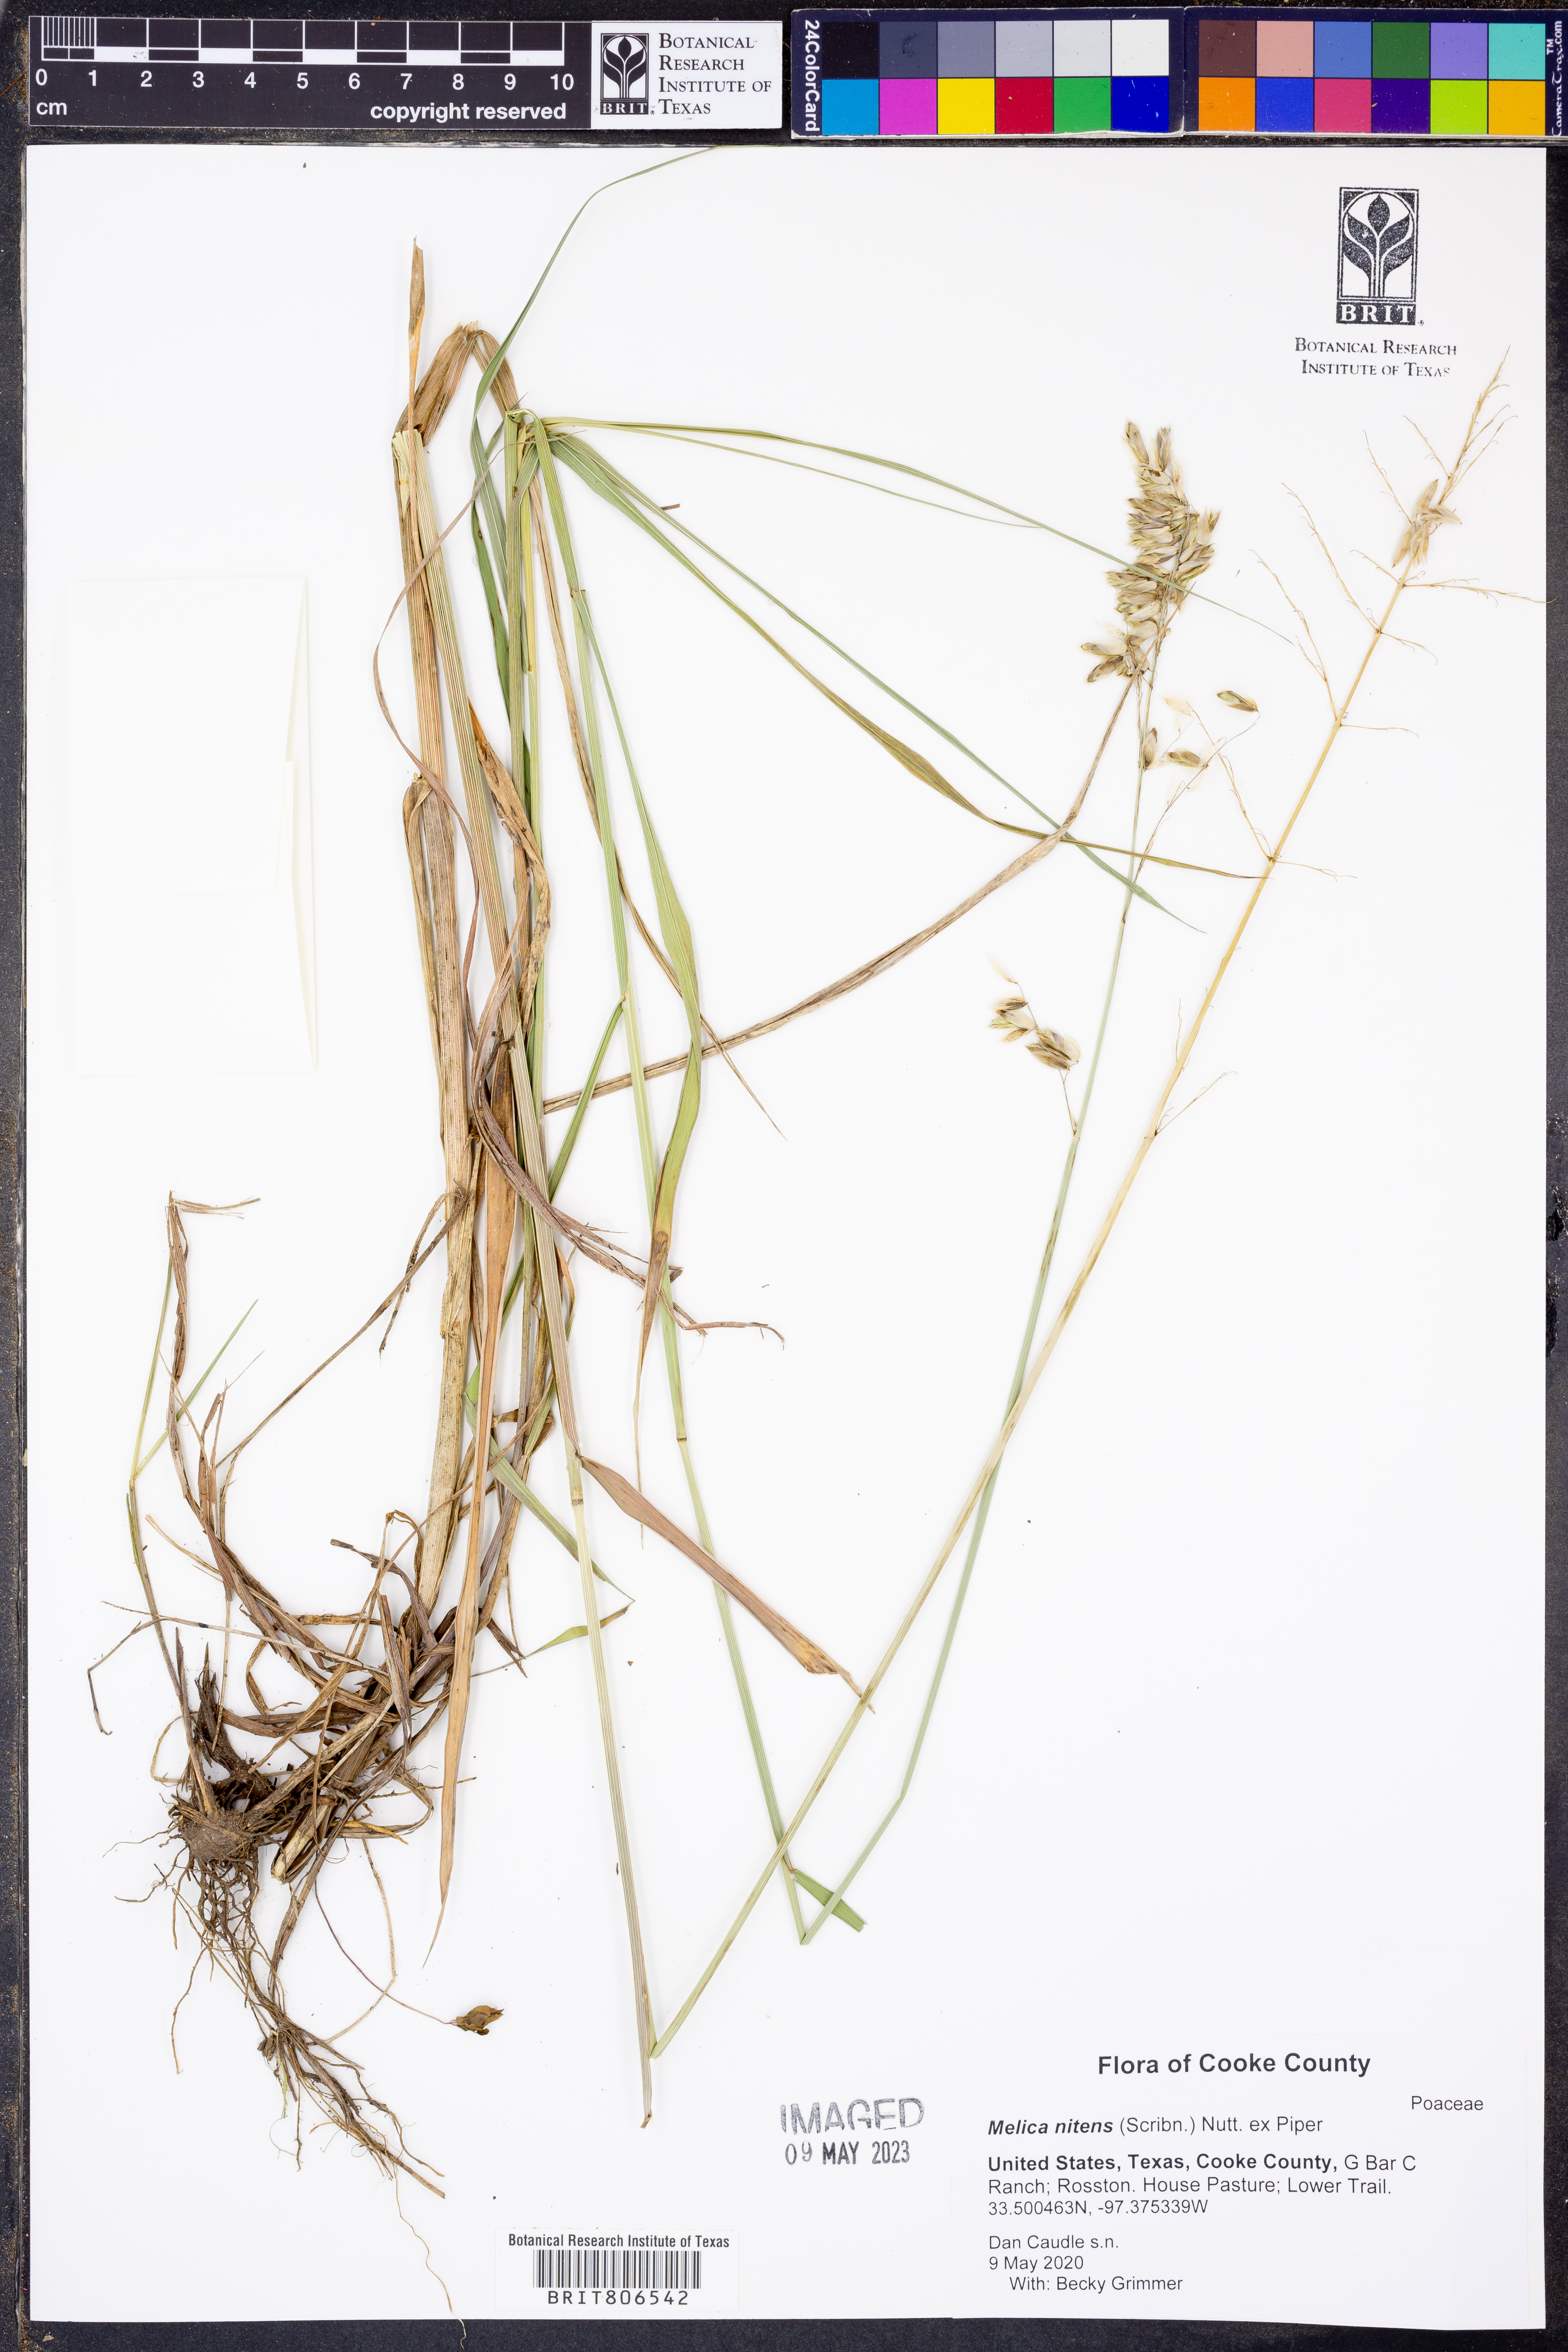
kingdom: Plantae
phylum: Tracheophyta
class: Liliopsida
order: Poales
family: Poaceae
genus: Melica
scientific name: Melica nitens
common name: Three-flower melic
